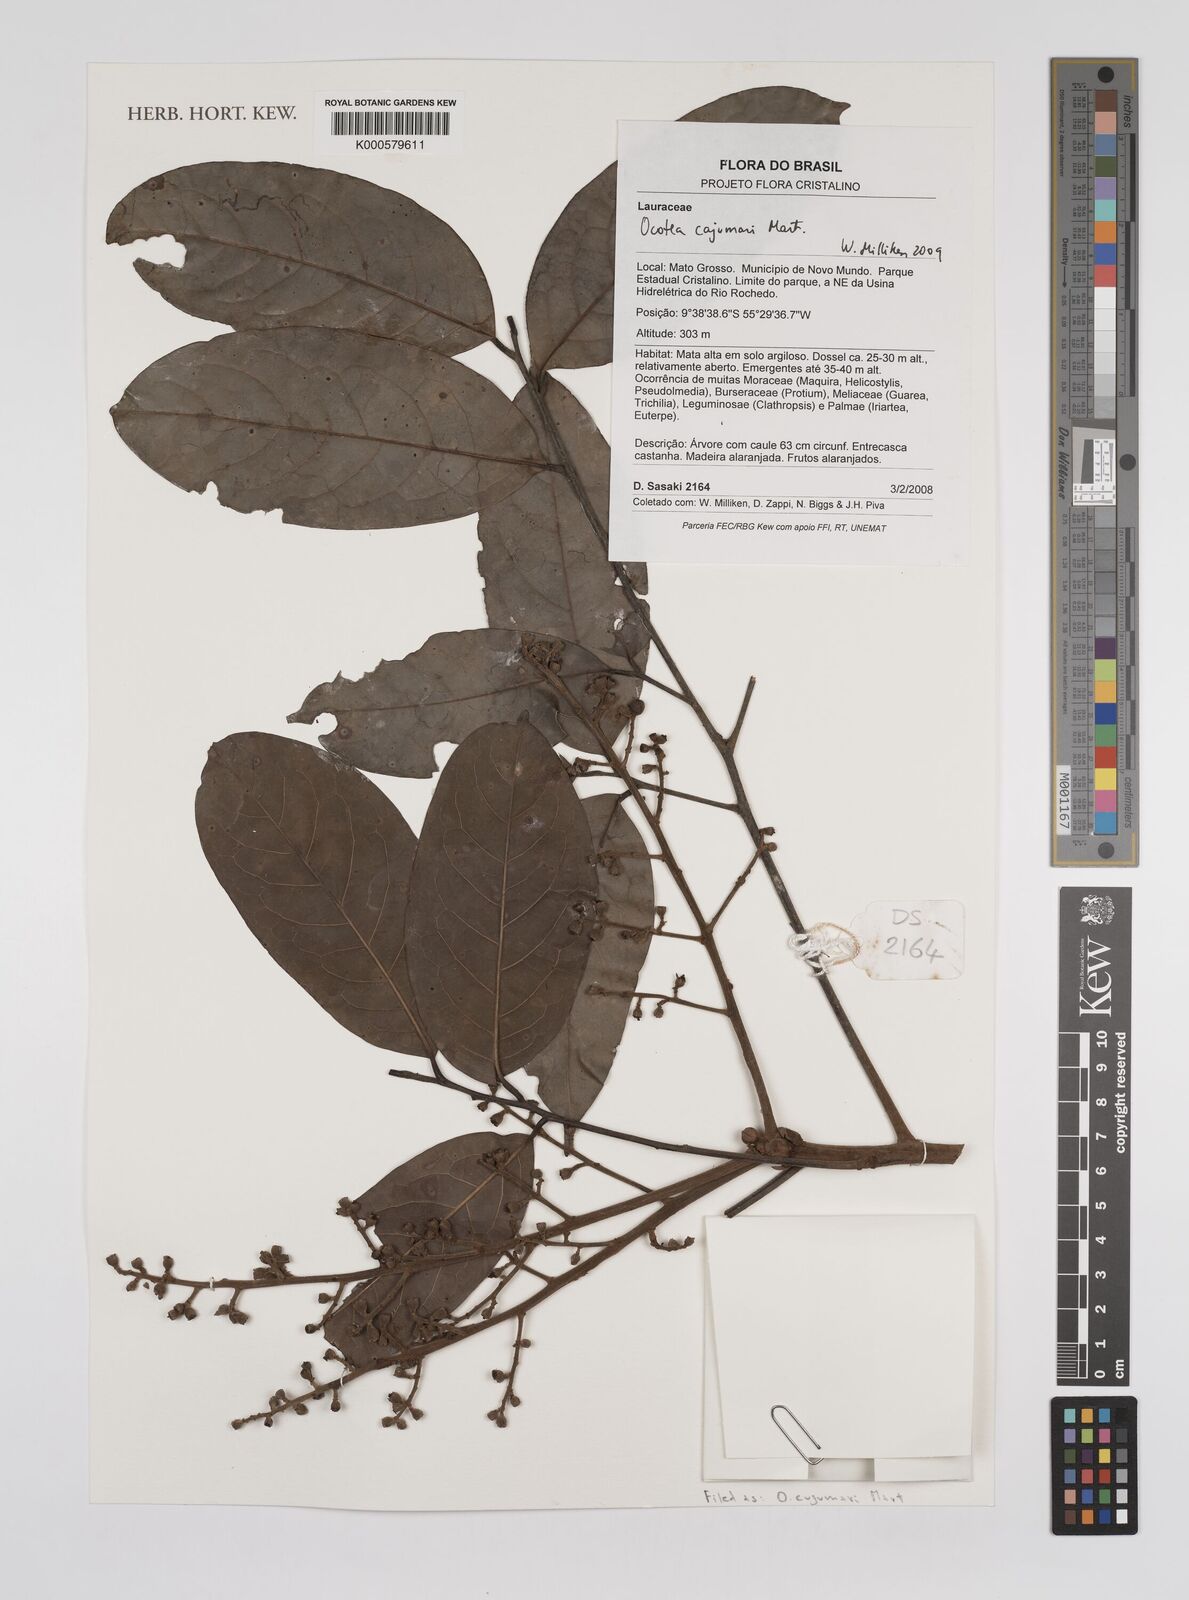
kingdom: Plantae
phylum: Tracheophyta
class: Magnoliopsida
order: Laurales
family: Lauraceae
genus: Ocotea
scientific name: Ocotea
